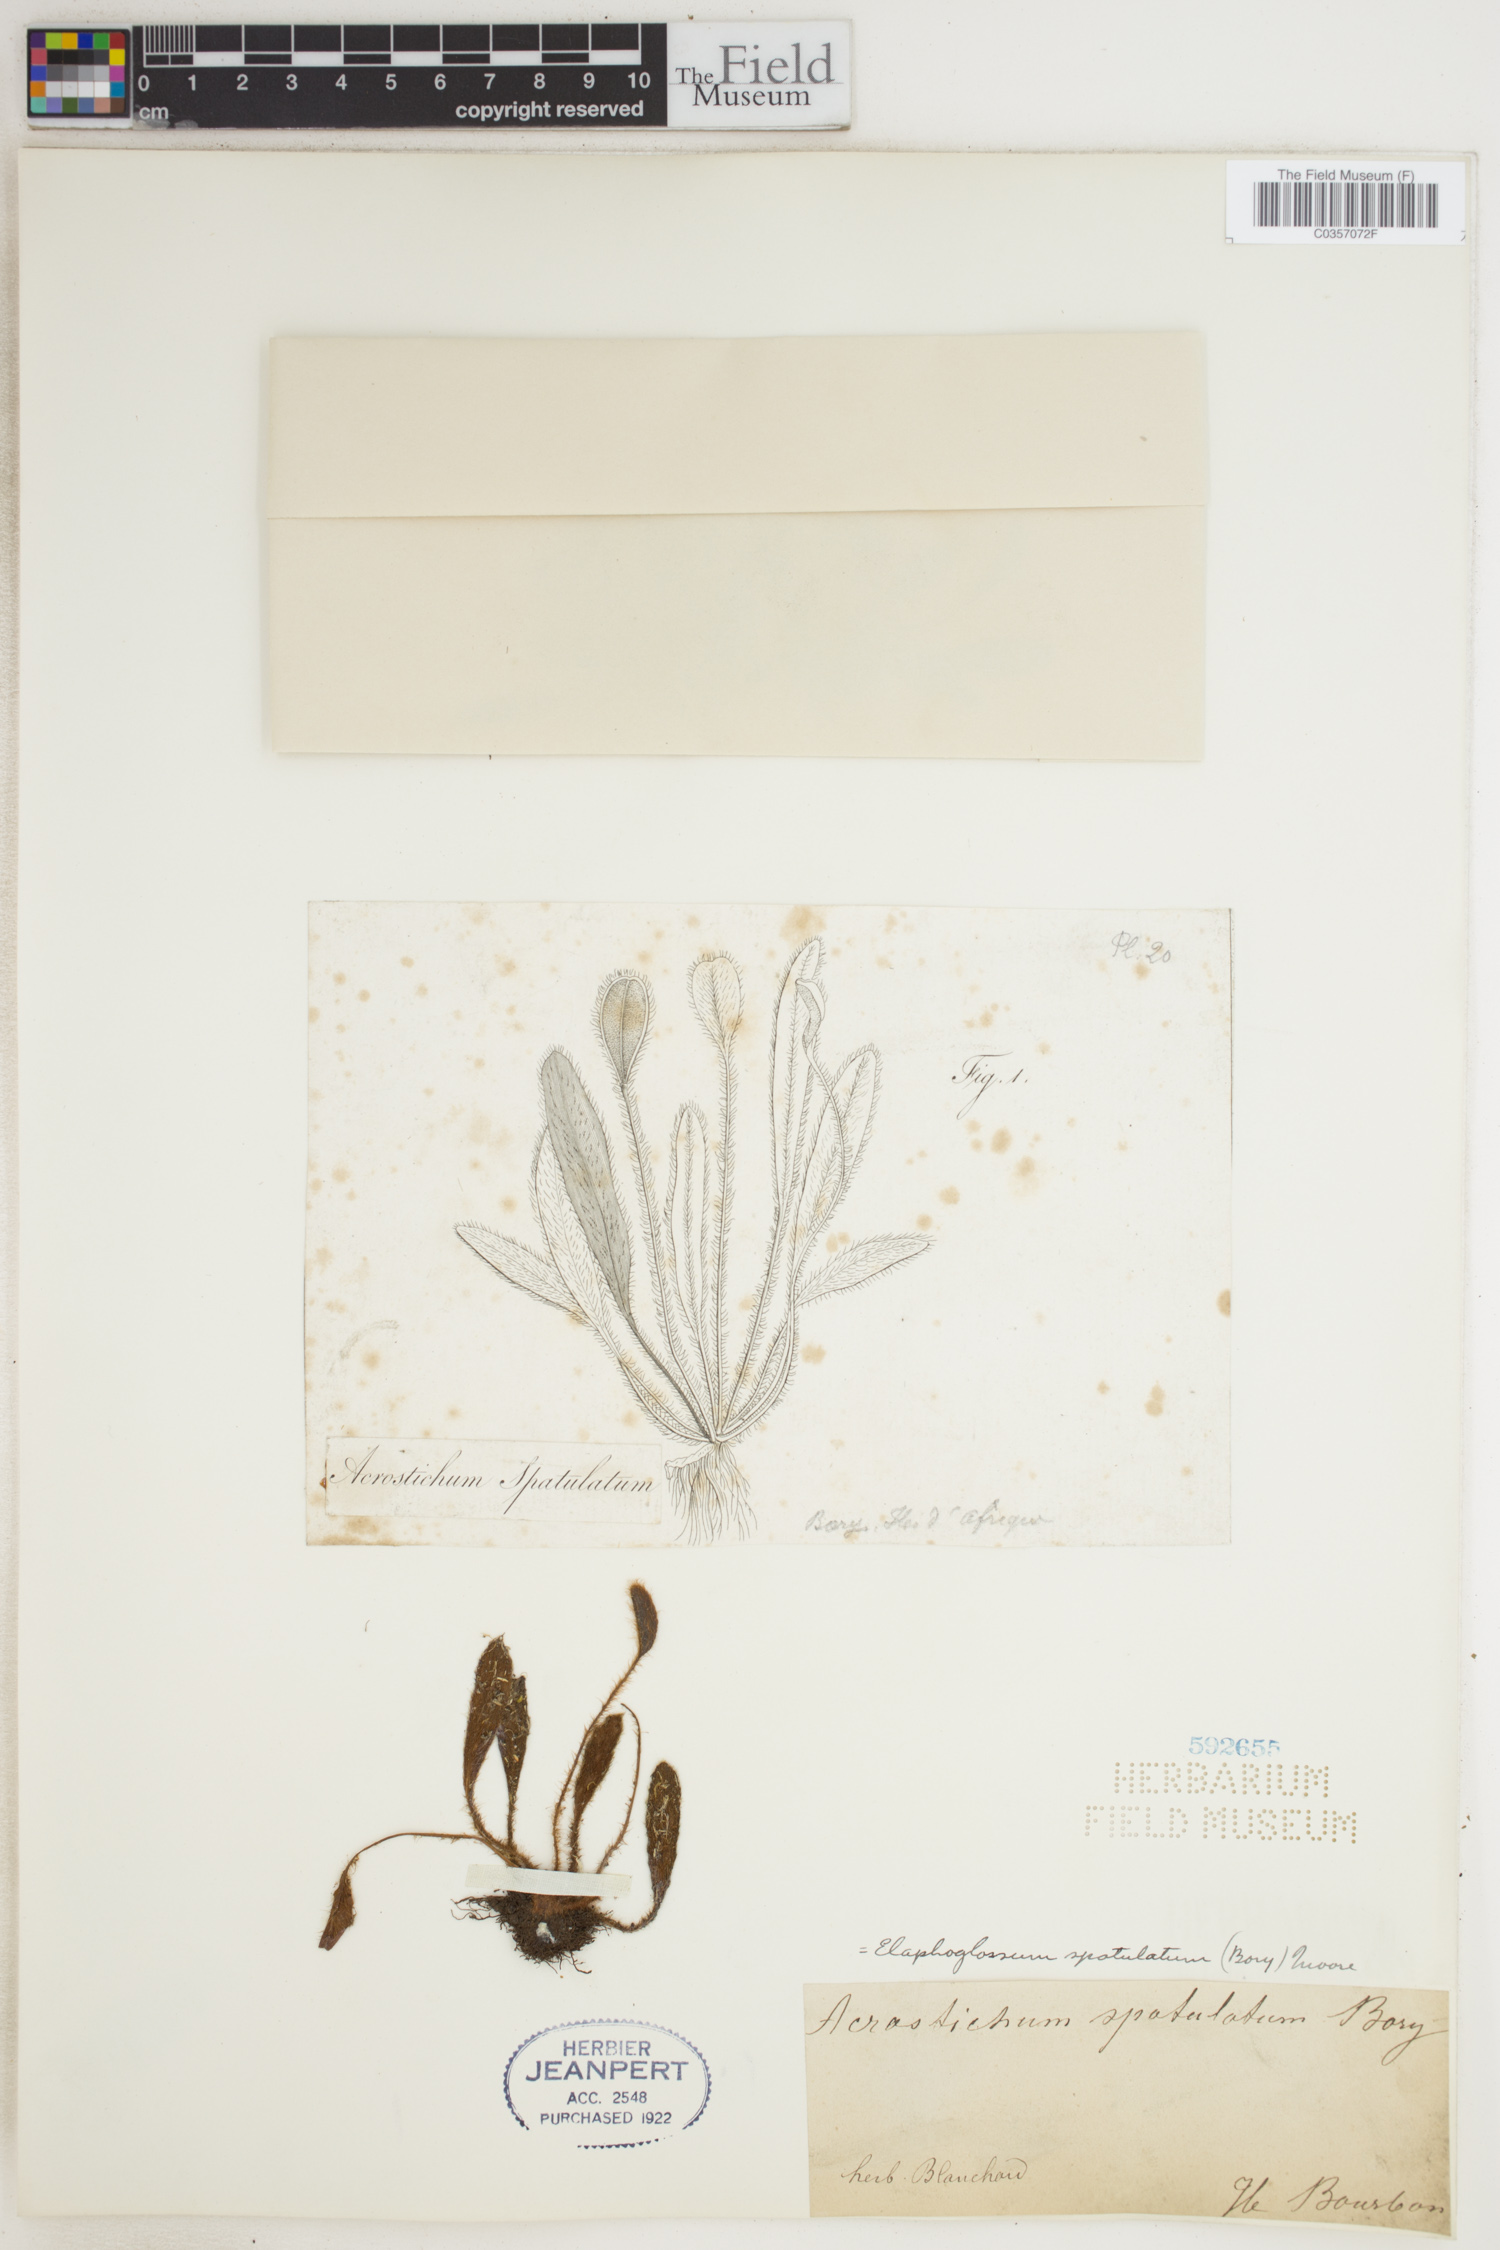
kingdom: Plantae
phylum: Tracheophyta
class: Polypodiopsida
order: Polypodiales
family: Dryopteridaceae
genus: Elaphoglossum
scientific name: Elaphoglossum spatulatum
